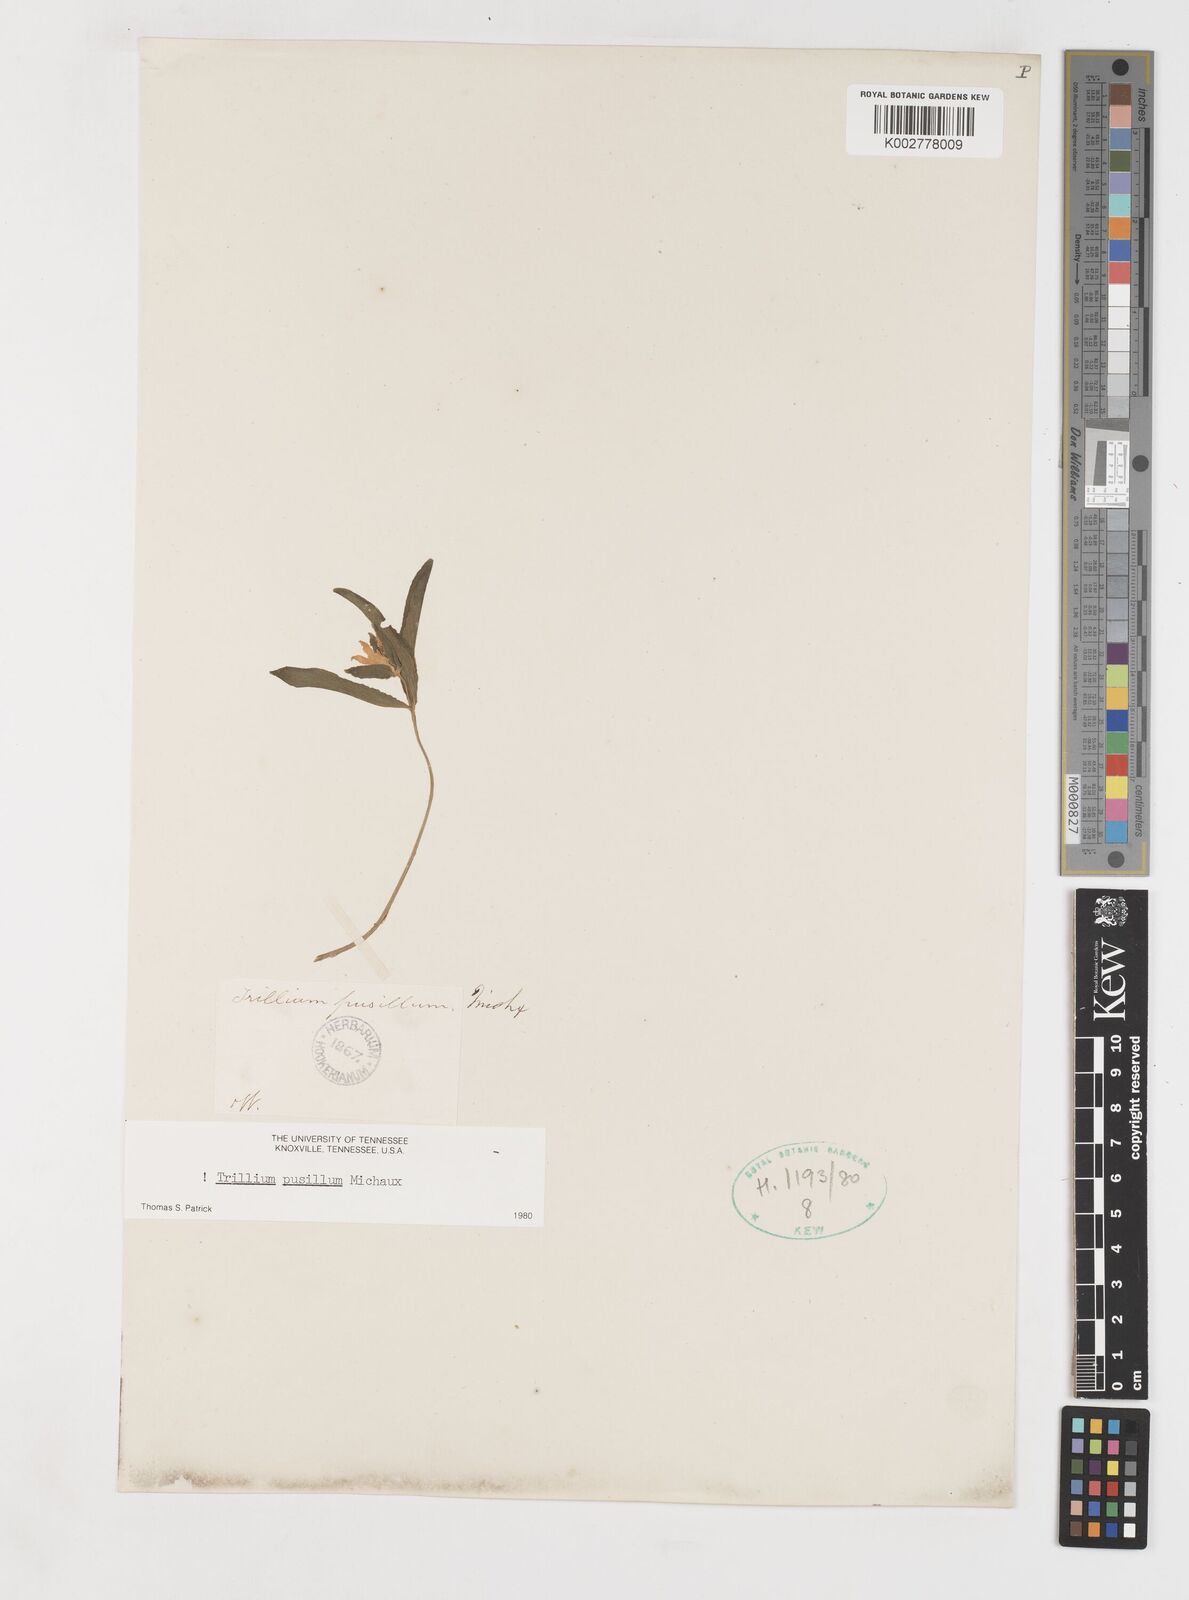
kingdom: Plantae
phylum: Tracheophyta
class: Liliopsida
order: Liliales
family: Melanthiaceae
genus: Trillium
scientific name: Trillium pusillum
